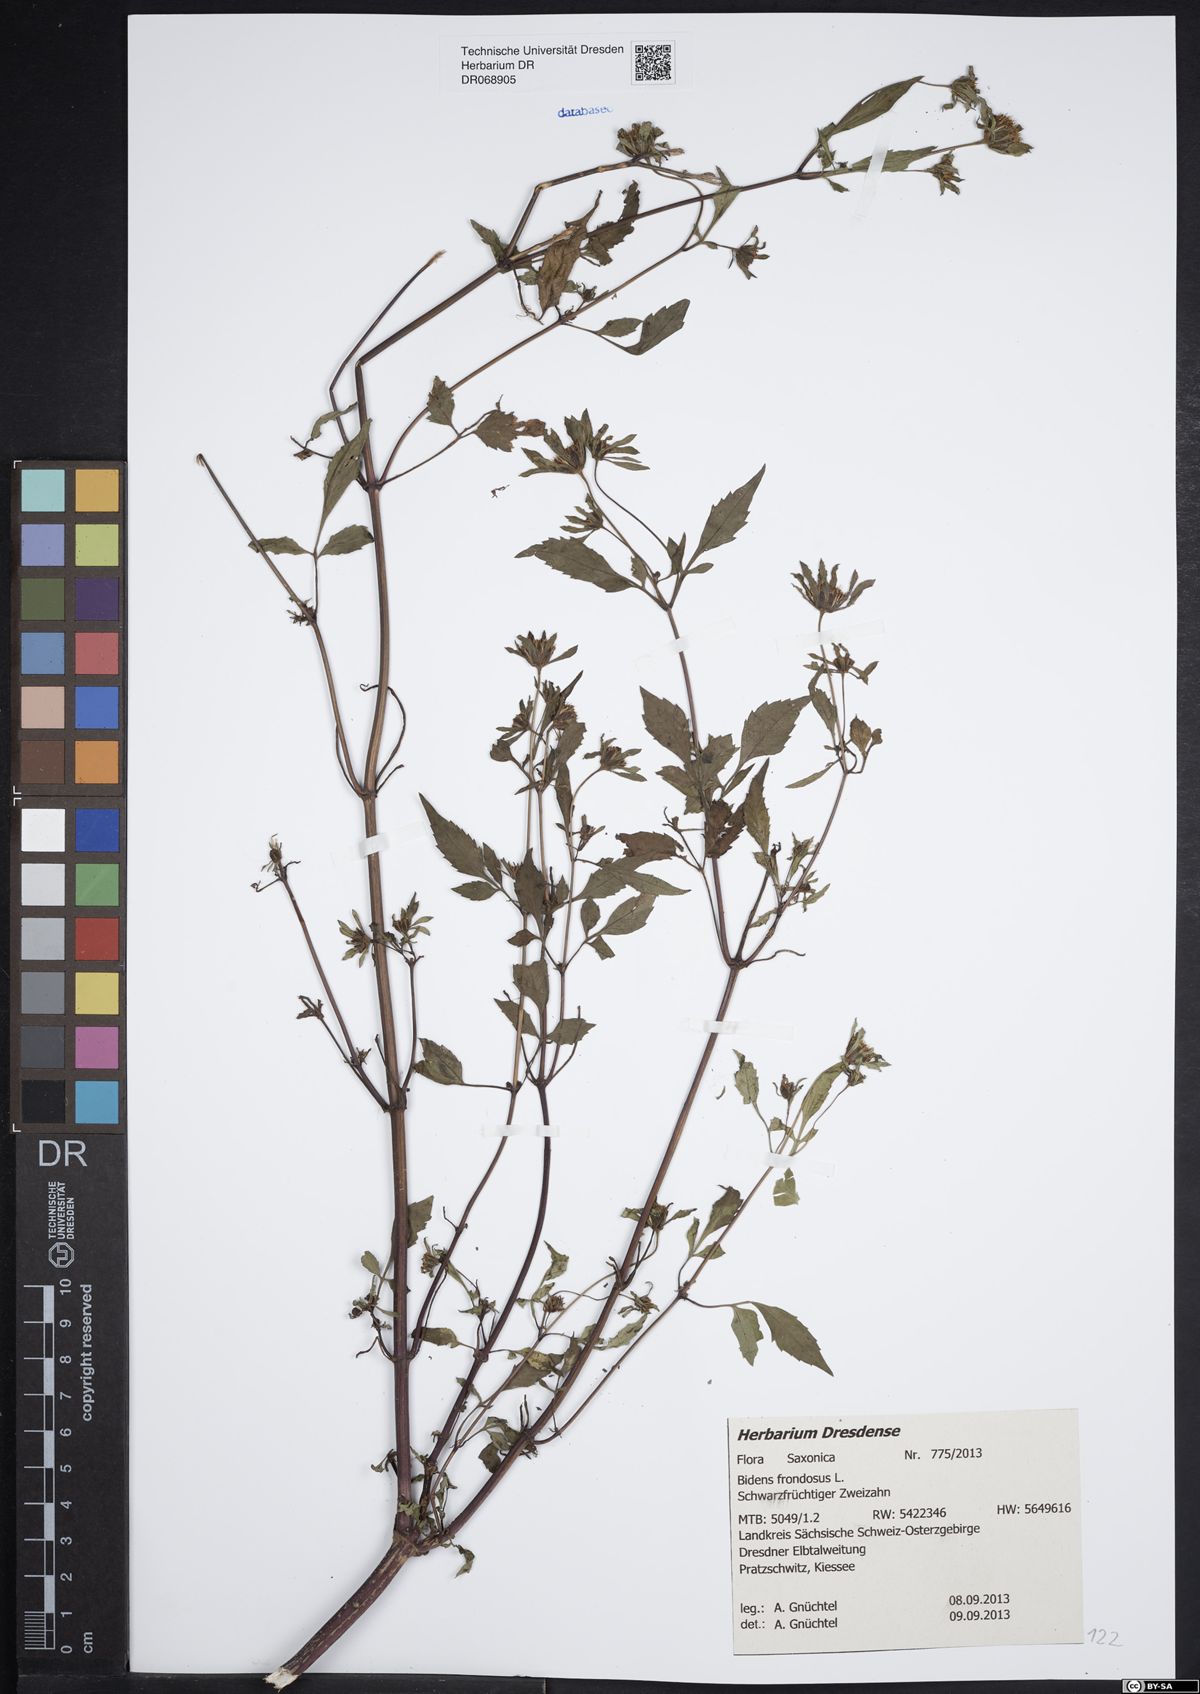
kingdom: Plantae
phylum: Tracheophyta
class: Magnoliopsida
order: Asterales
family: Asteraceae
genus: Bidens
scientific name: Bidens frondosa
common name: Beggarticks
